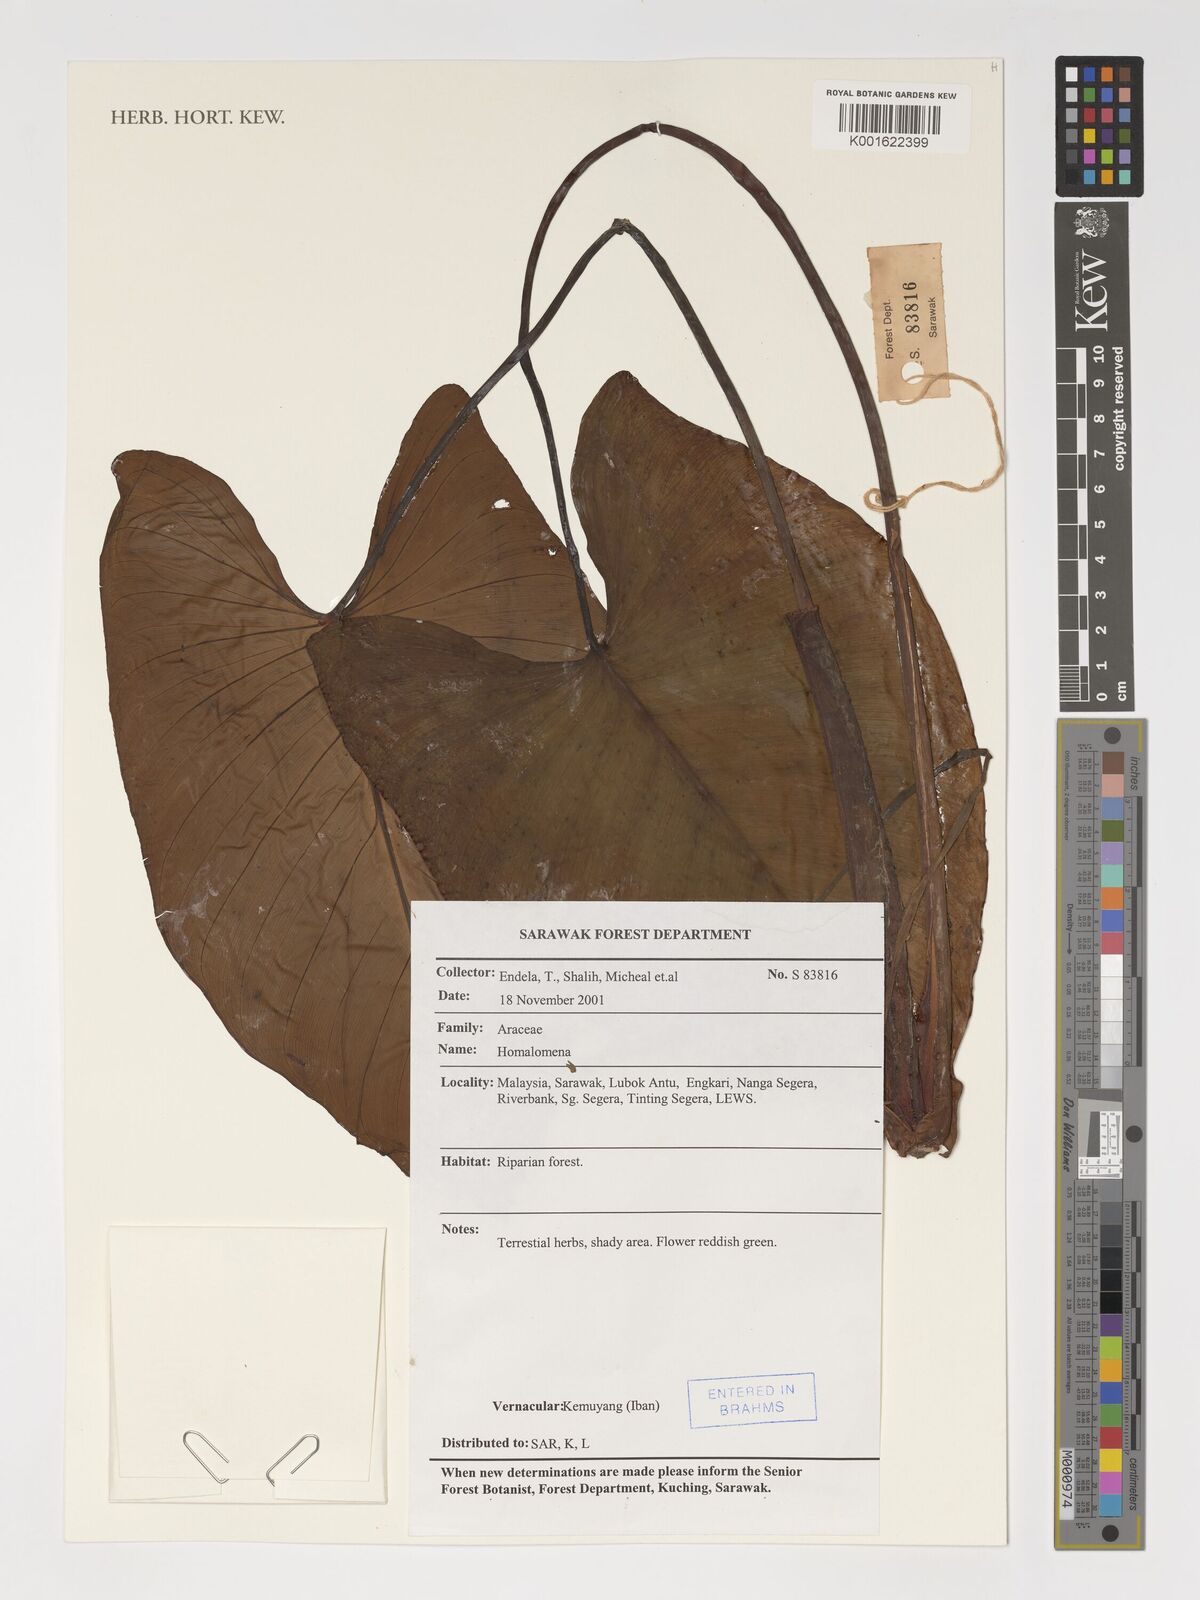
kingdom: Plantae
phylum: Tracheophyta
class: Liliopsida
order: Alismatales
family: Araceae
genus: Homalomena
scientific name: Homalomena
